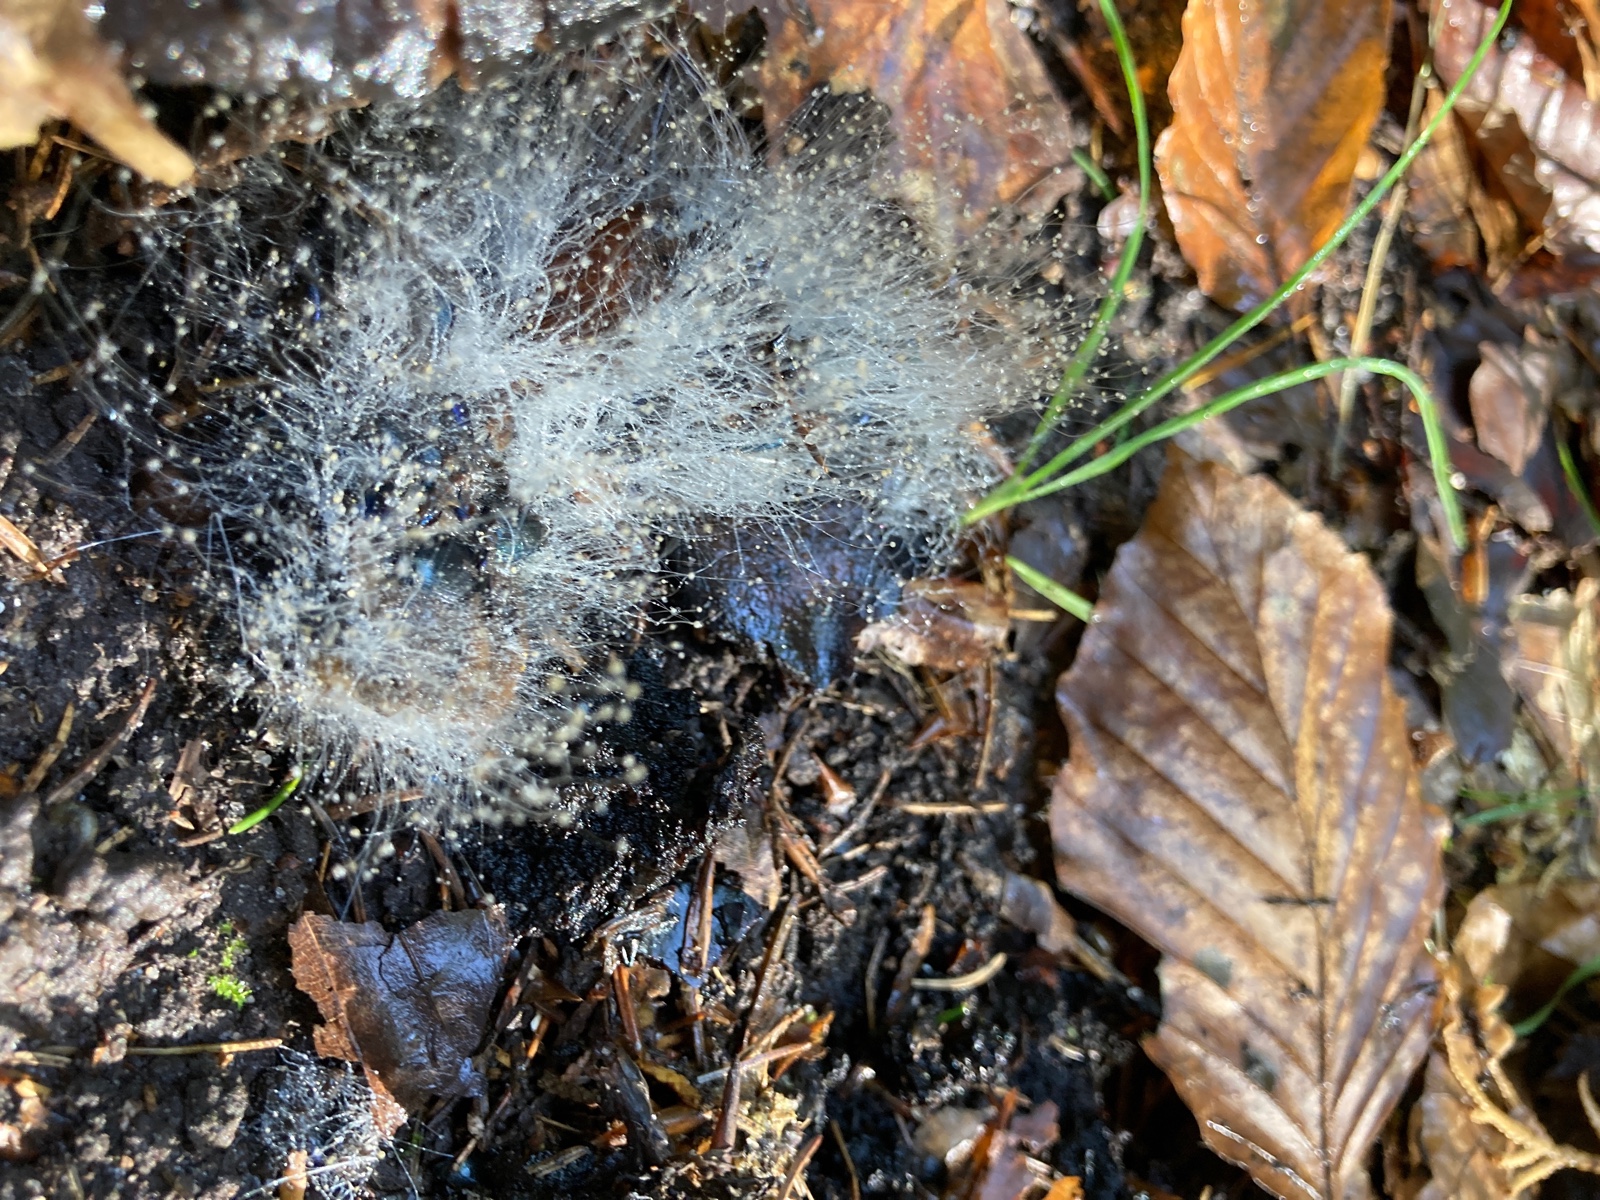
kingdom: Fungi
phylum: Mucoromycota
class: Mucoromycetes
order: Mucorales
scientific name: Mucorales
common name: mugordenen
